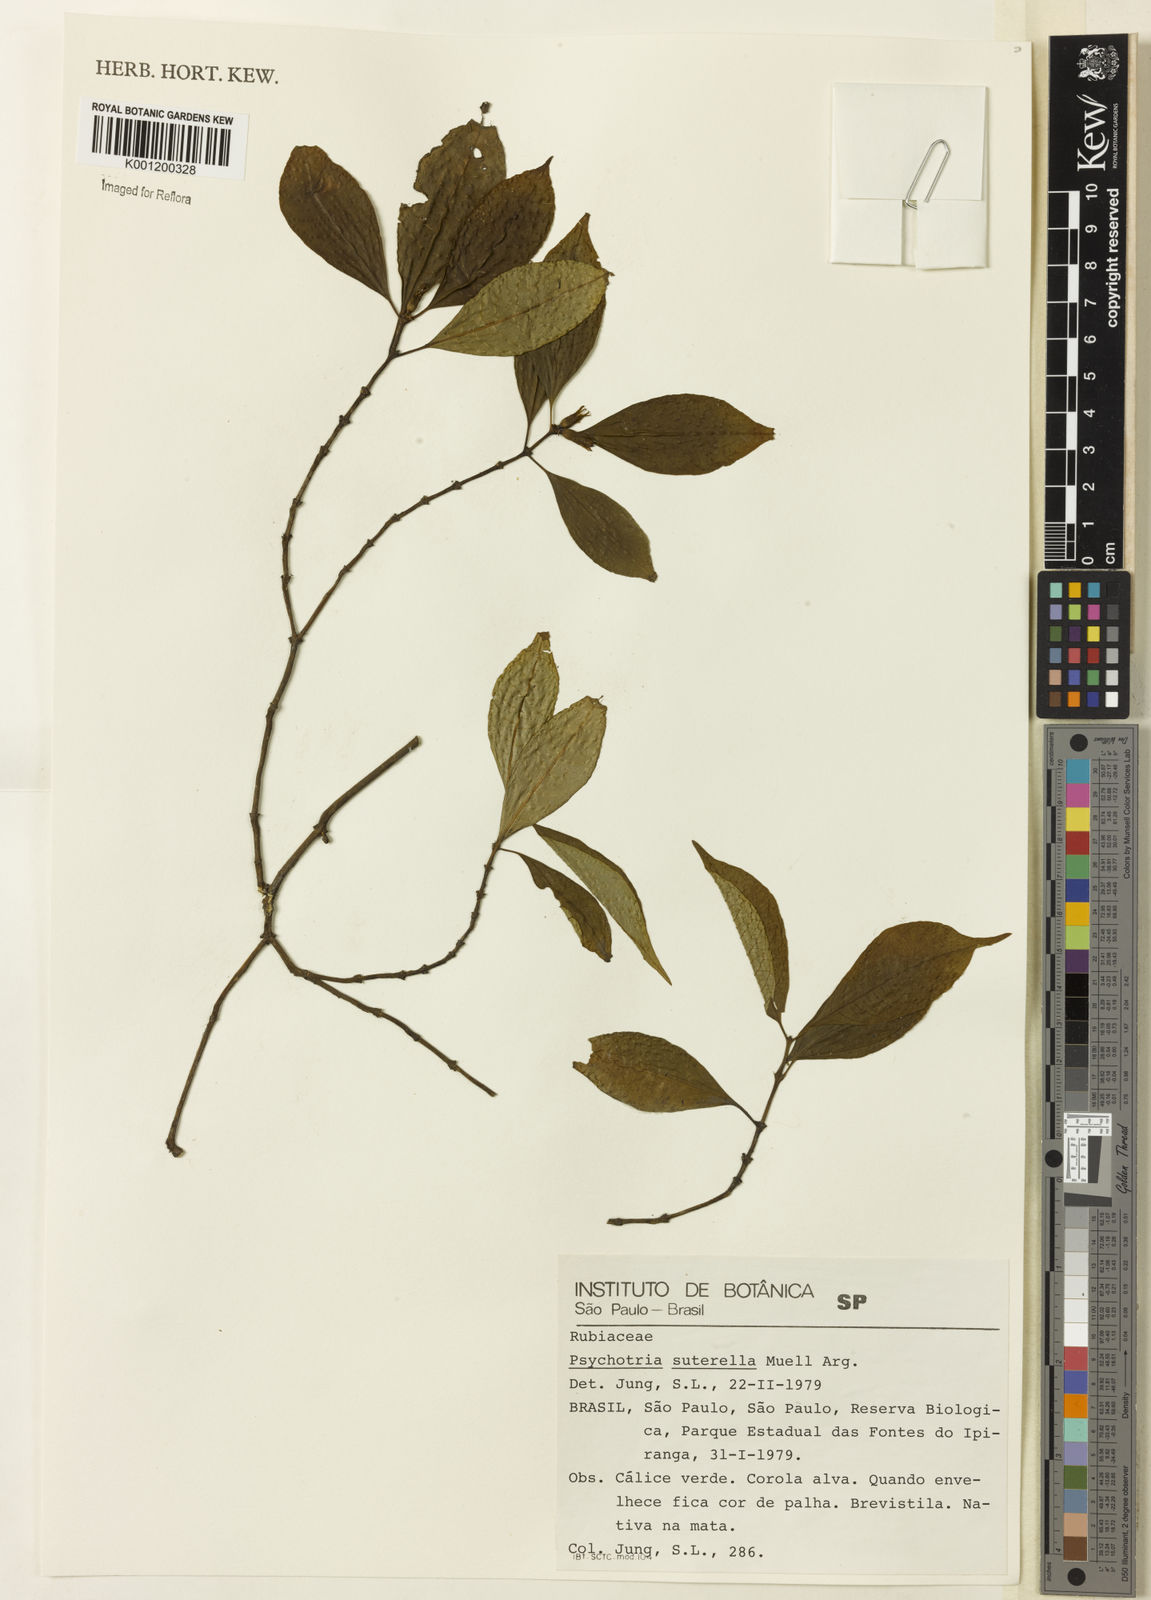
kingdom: Plantae
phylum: Tracheophyta
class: Magnoliopsida
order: Gentianales
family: Rubiaceae
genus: Psychotria
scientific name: Psychotria
